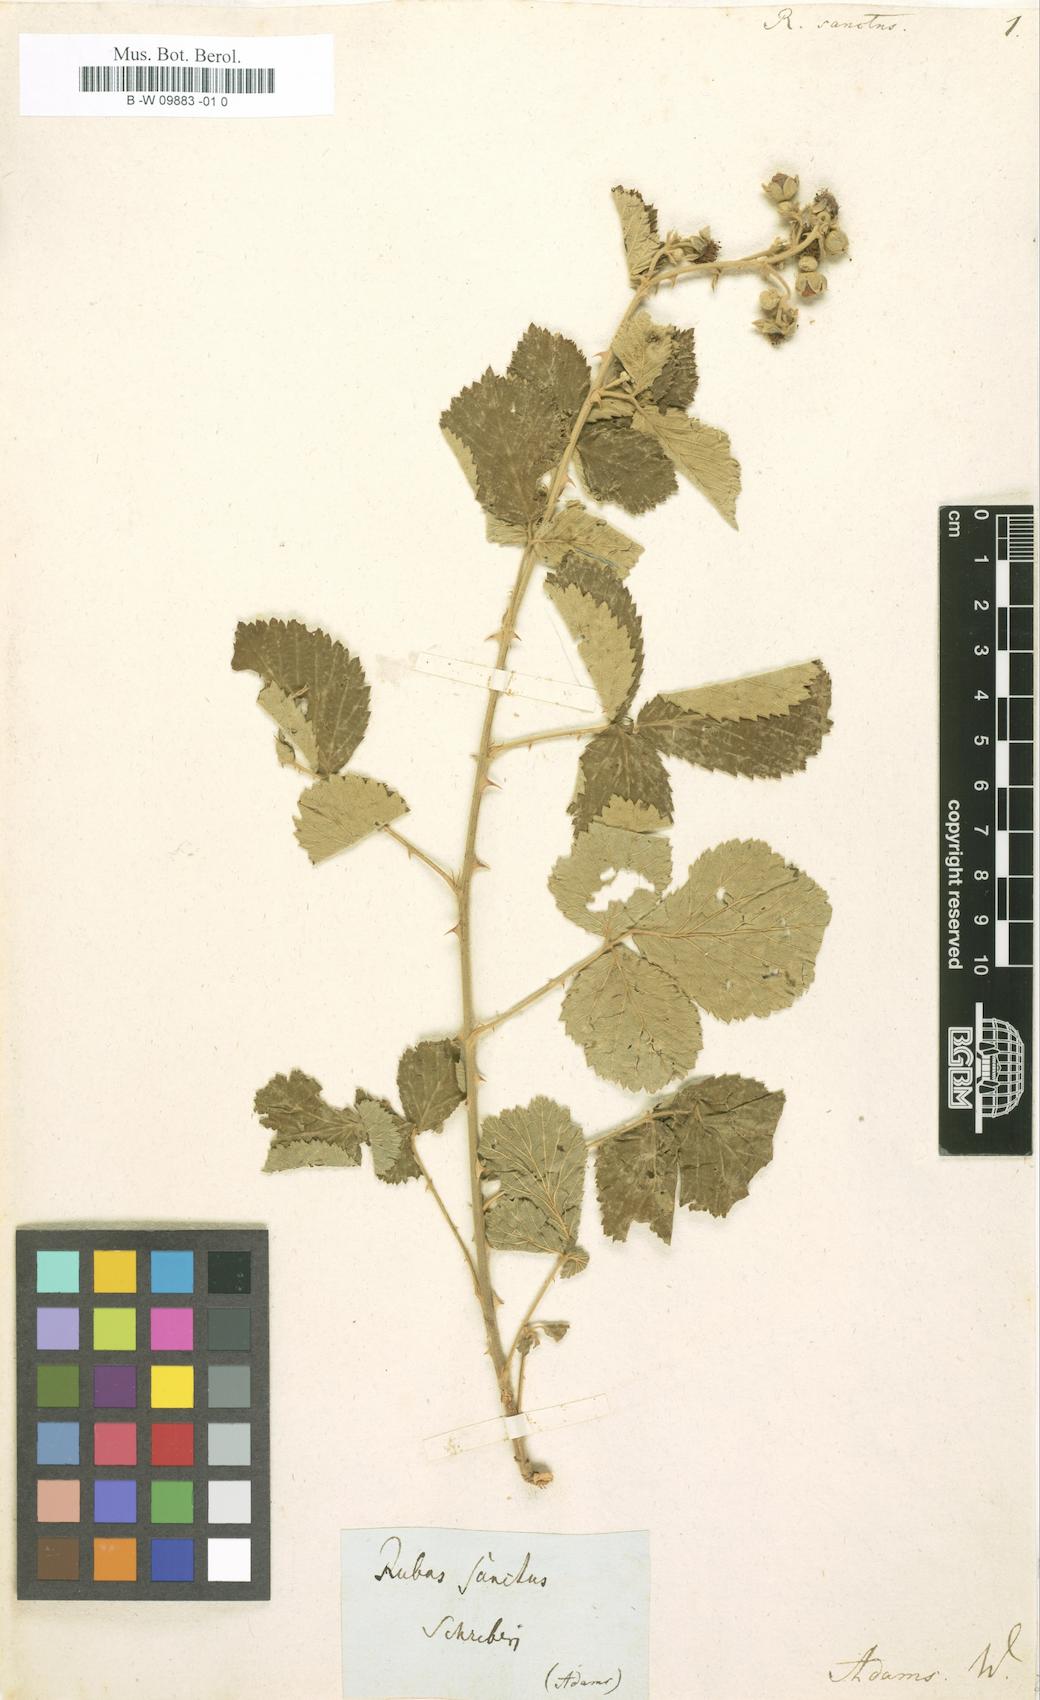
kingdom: Plantae
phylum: Tracheophyta
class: Magnoliopsida
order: Rosales
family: Rosaceae
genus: Rubus
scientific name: Rubus sanctus
